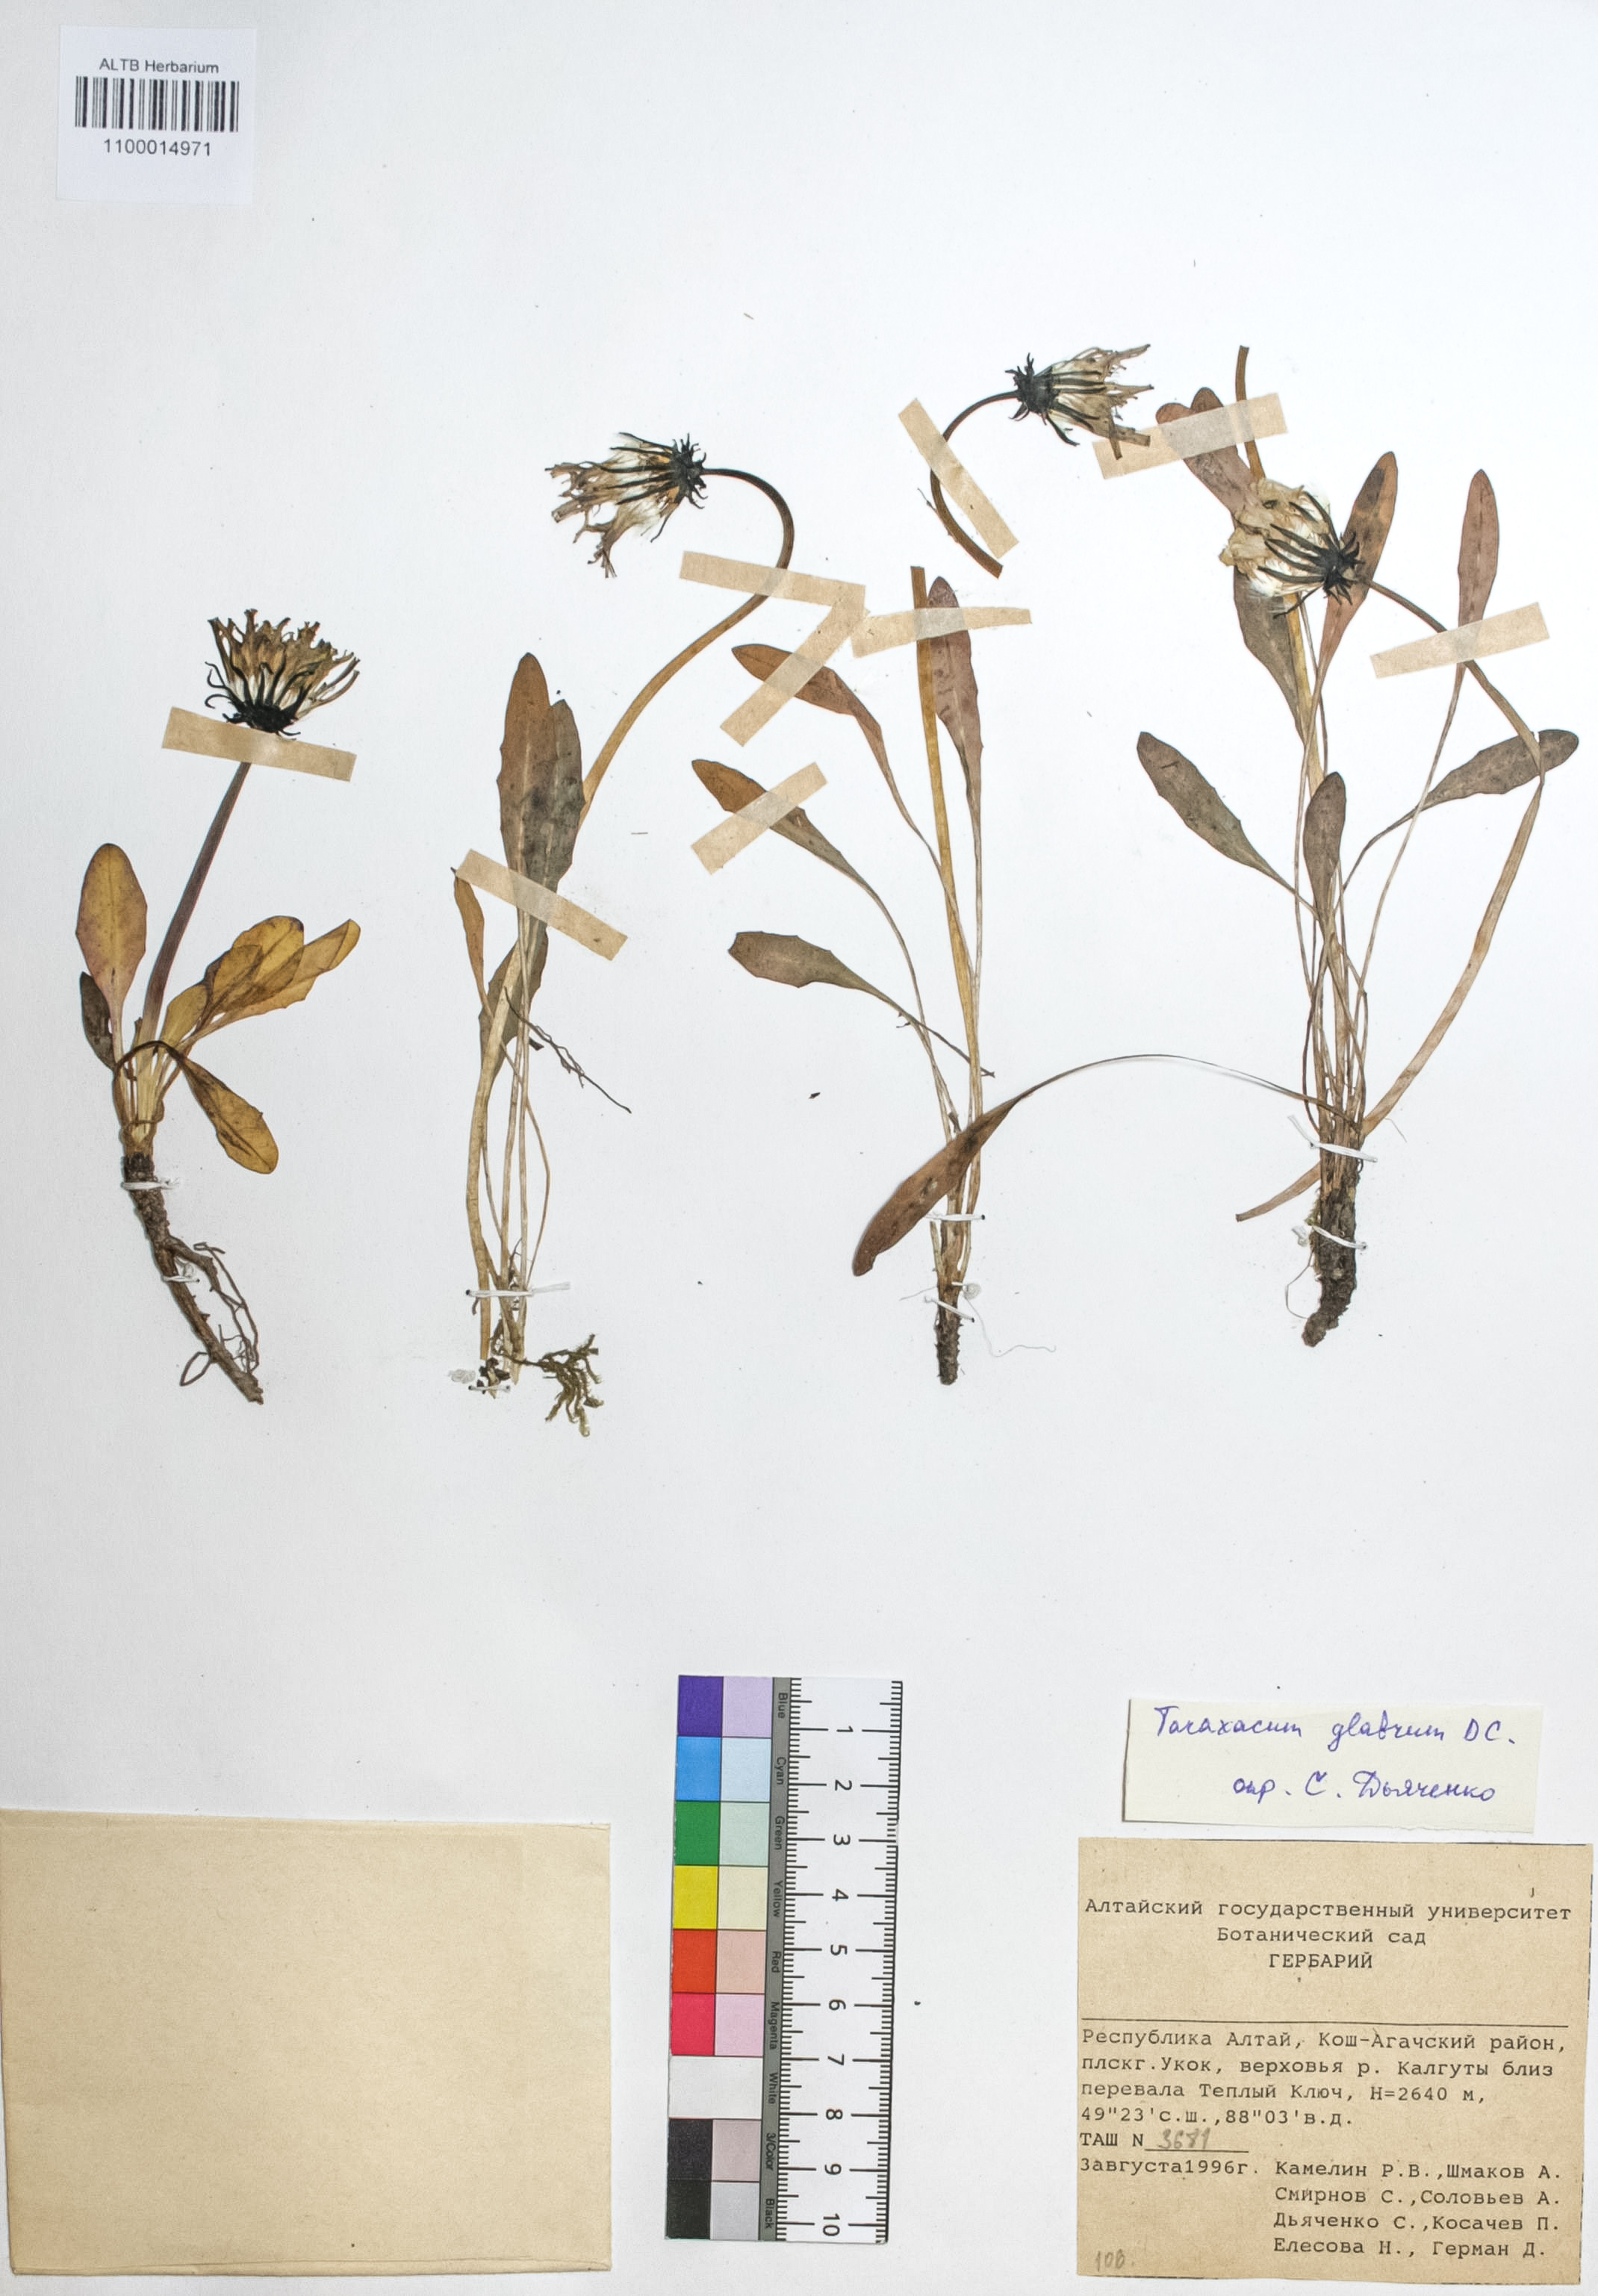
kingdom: Plantae
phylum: Tracheophyta
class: Magnoliopsida
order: Asterales
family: Asteraceae
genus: Taraxacum
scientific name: Taraxacum glabrum
